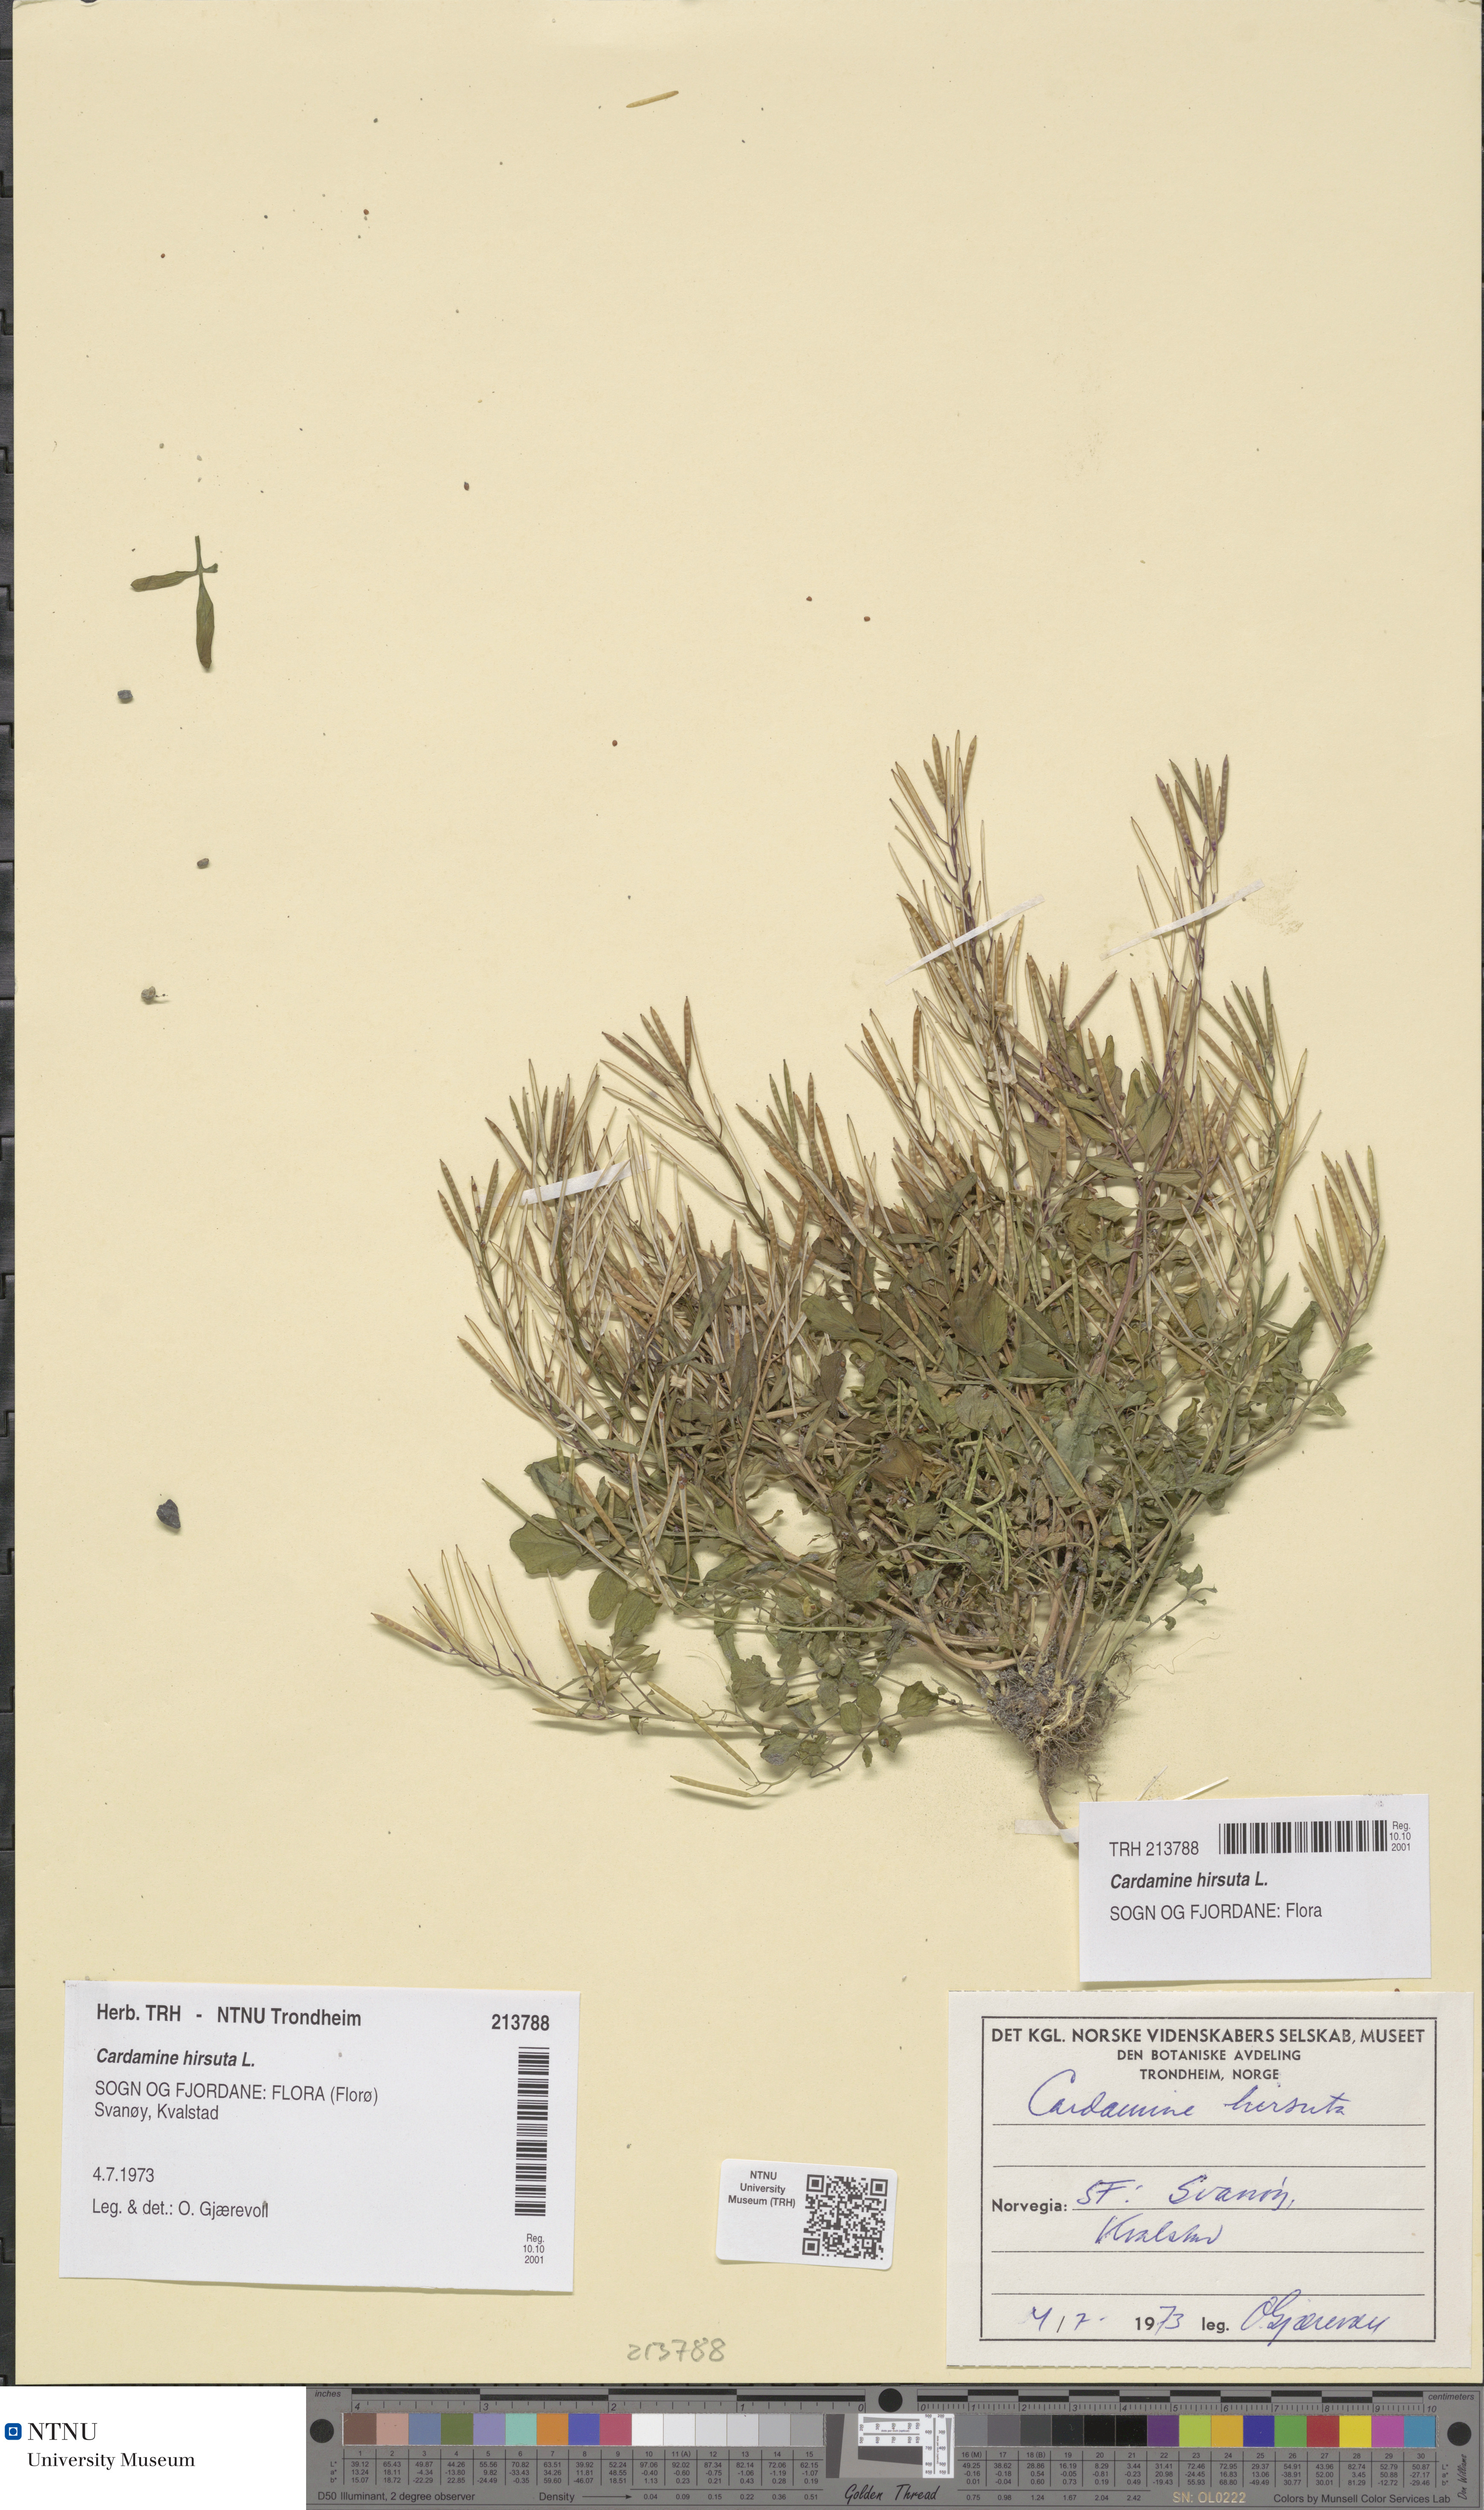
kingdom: Plantae
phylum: Tracheophyta
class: Magnoliopsida
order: Brassicales
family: Brassicaceae
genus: Cardamine
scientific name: Cardamine hirsuta
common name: Hairy bittercress
